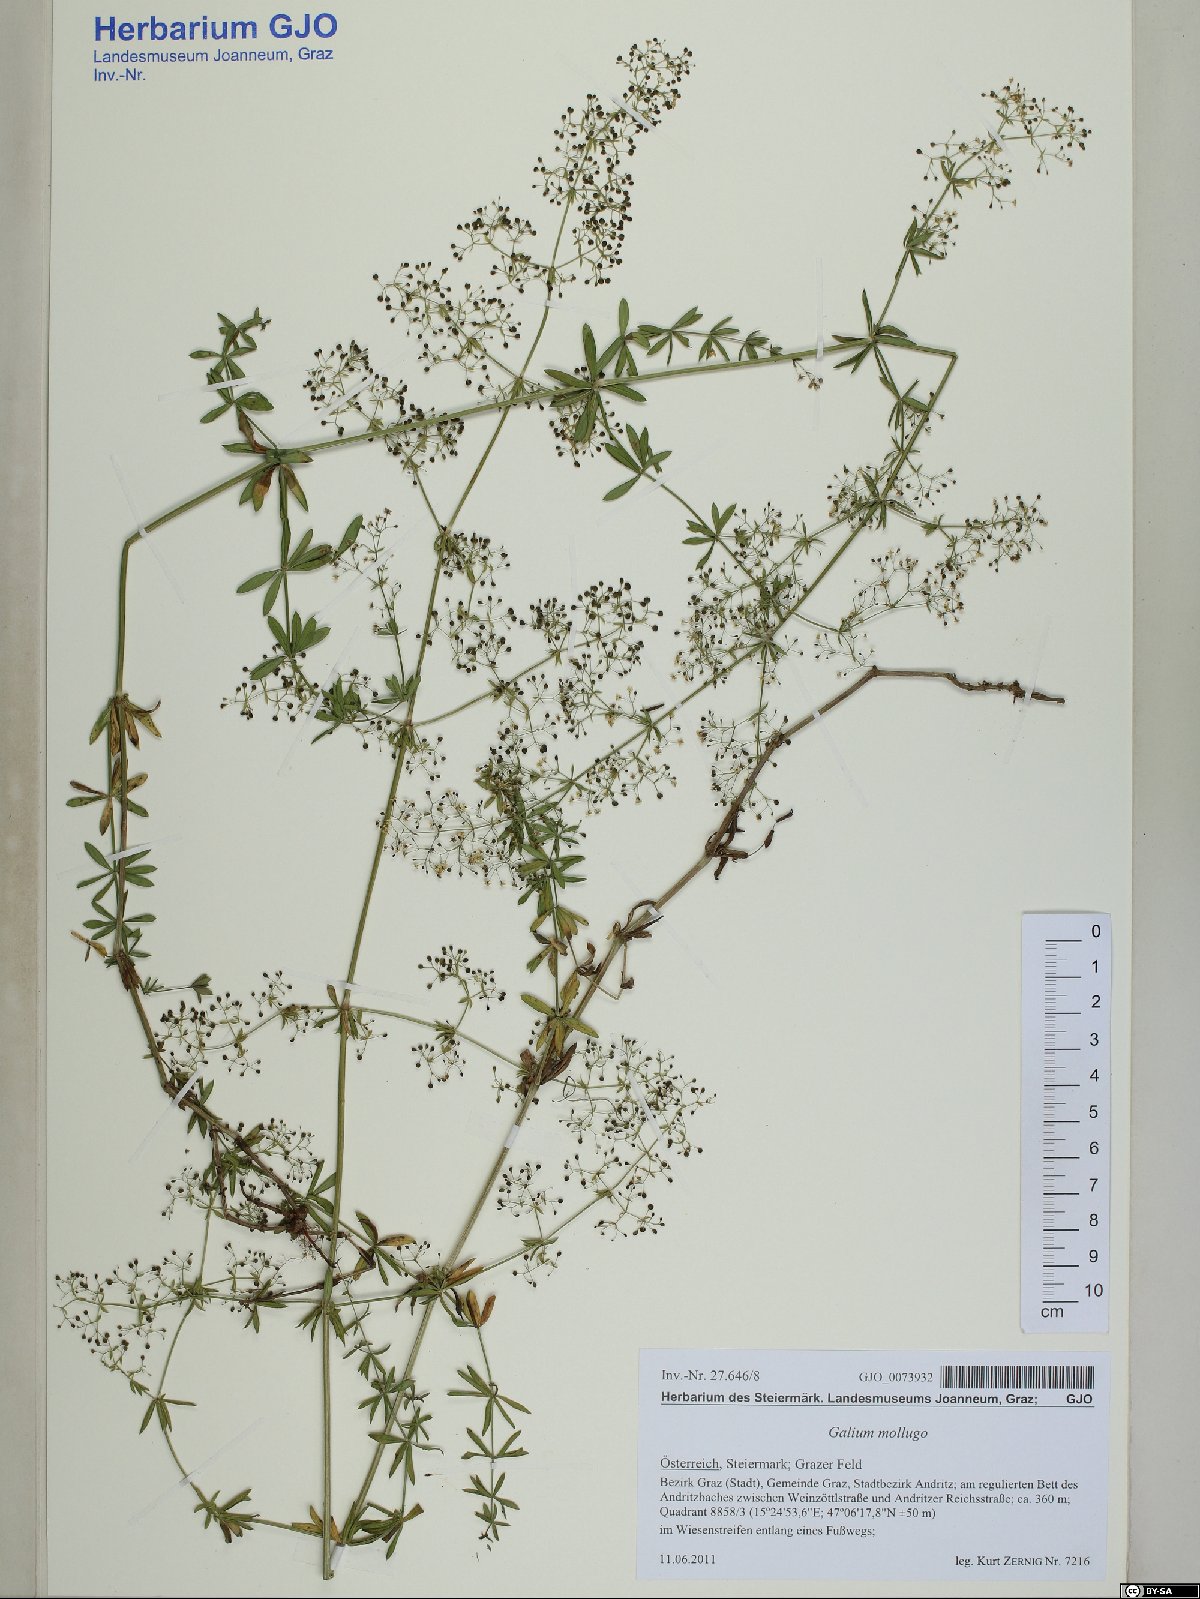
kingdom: Plantae
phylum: Tracheophyta
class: Magnoliopsida
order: Gentianales
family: Rubiaceae
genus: Galium
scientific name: Galium mollugo
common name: Hedge bedstraw
